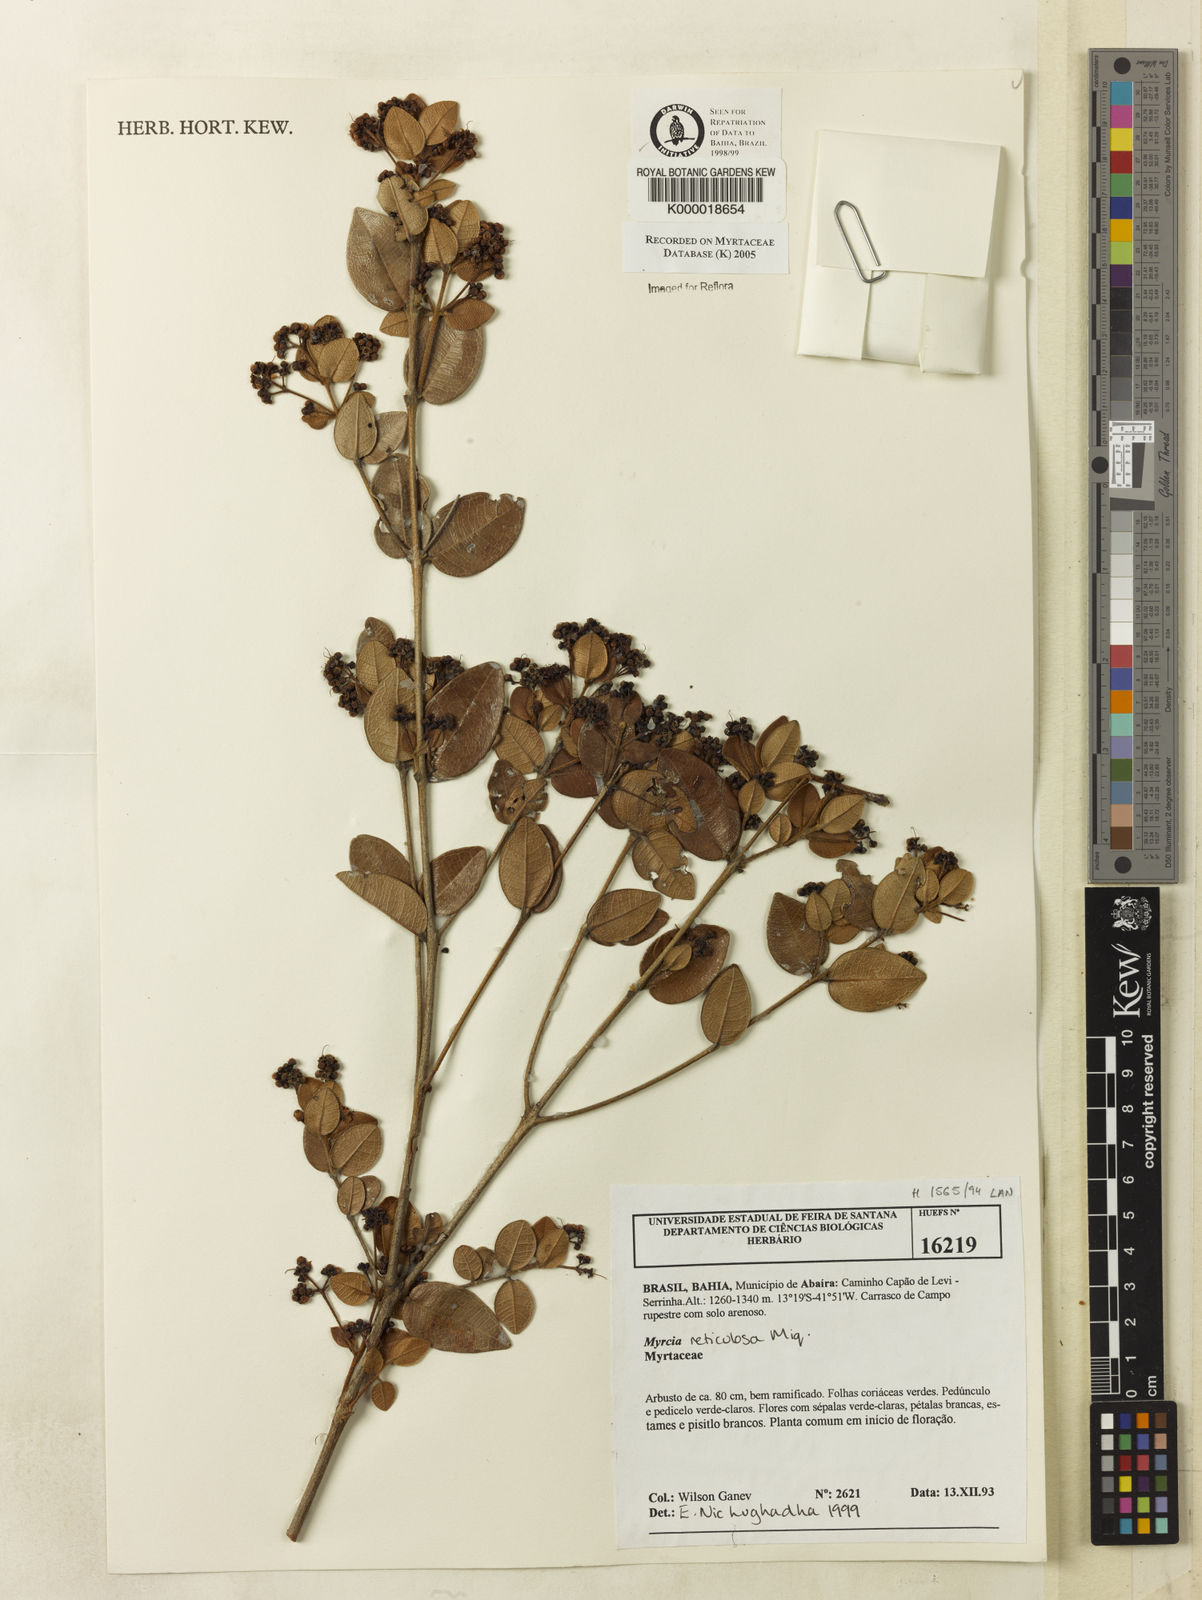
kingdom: Plantae
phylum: Tracheophyta
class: Magnoliopsida
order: Myrtales
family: Myrtaceae
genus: Myrcia
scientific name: Myrcia reticulosa
